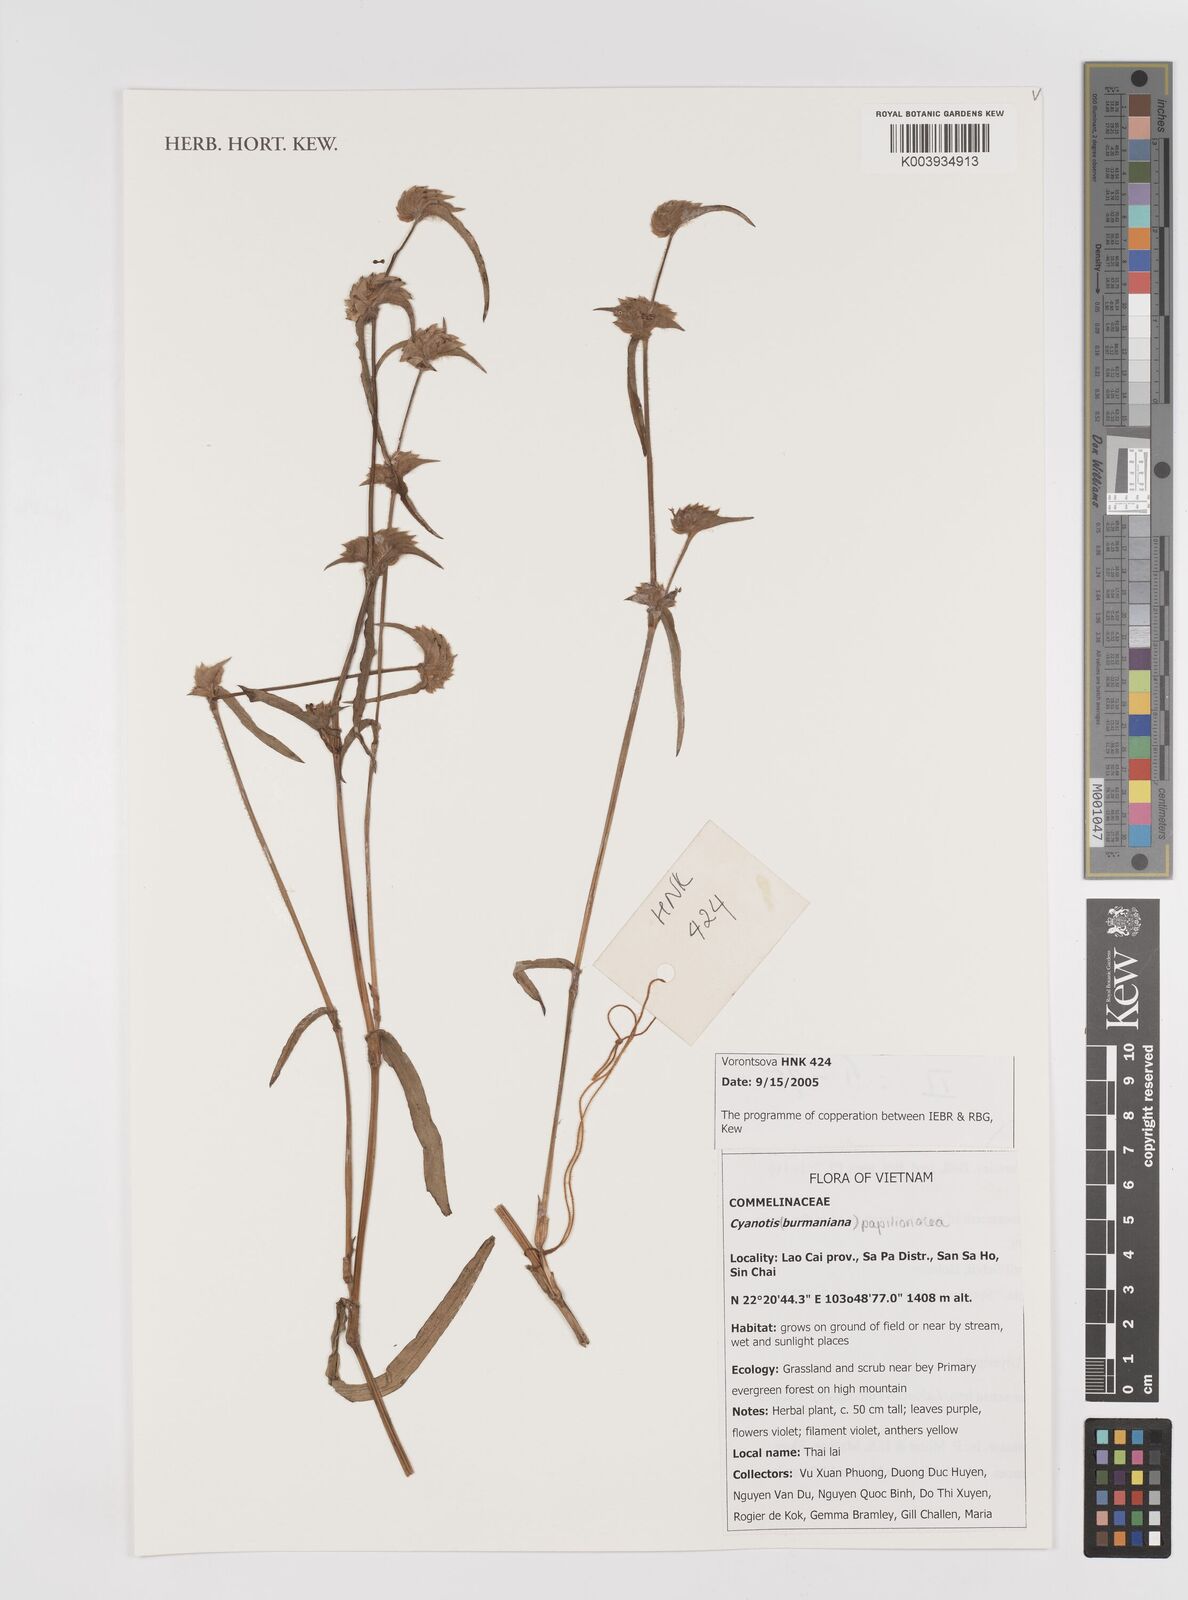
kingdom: Plantae
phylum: Tracheophyta
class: Liliopsida
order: Commelinales
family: Commelinaceae
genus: Cyanotis
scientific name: Cyanotis cristata
